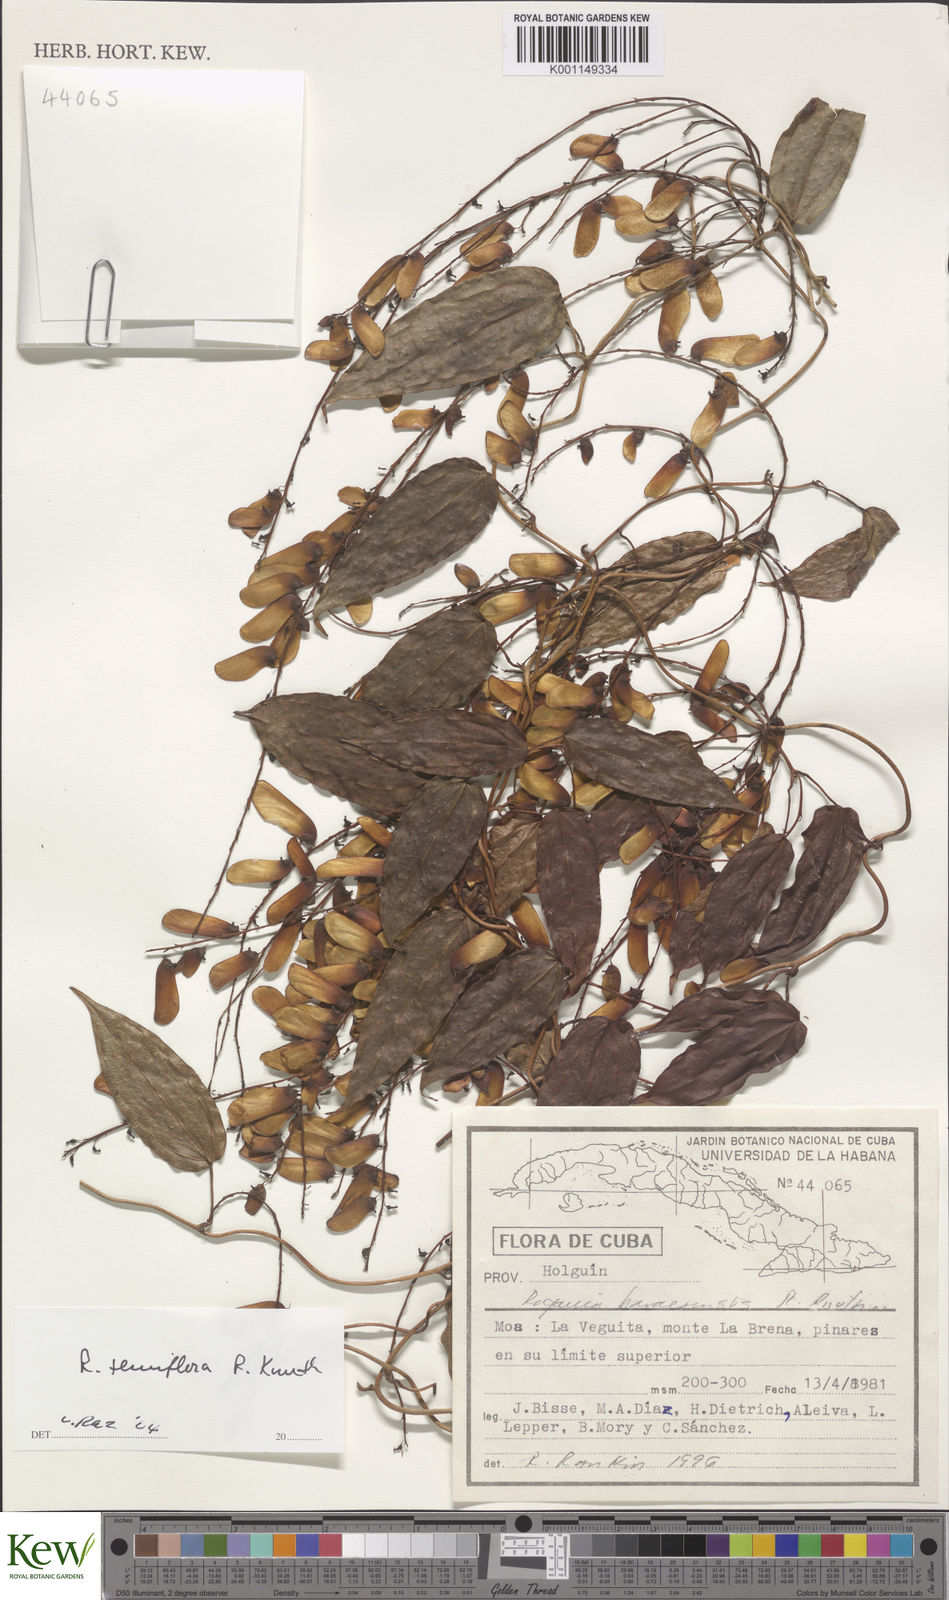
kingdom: Plantae
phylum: Tracheophyta
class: Liliopsida
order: Dioscoreales
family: Dioscoreaceae
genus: Dioscorea
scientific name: Dioscorea bulbifera
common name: Air yam
